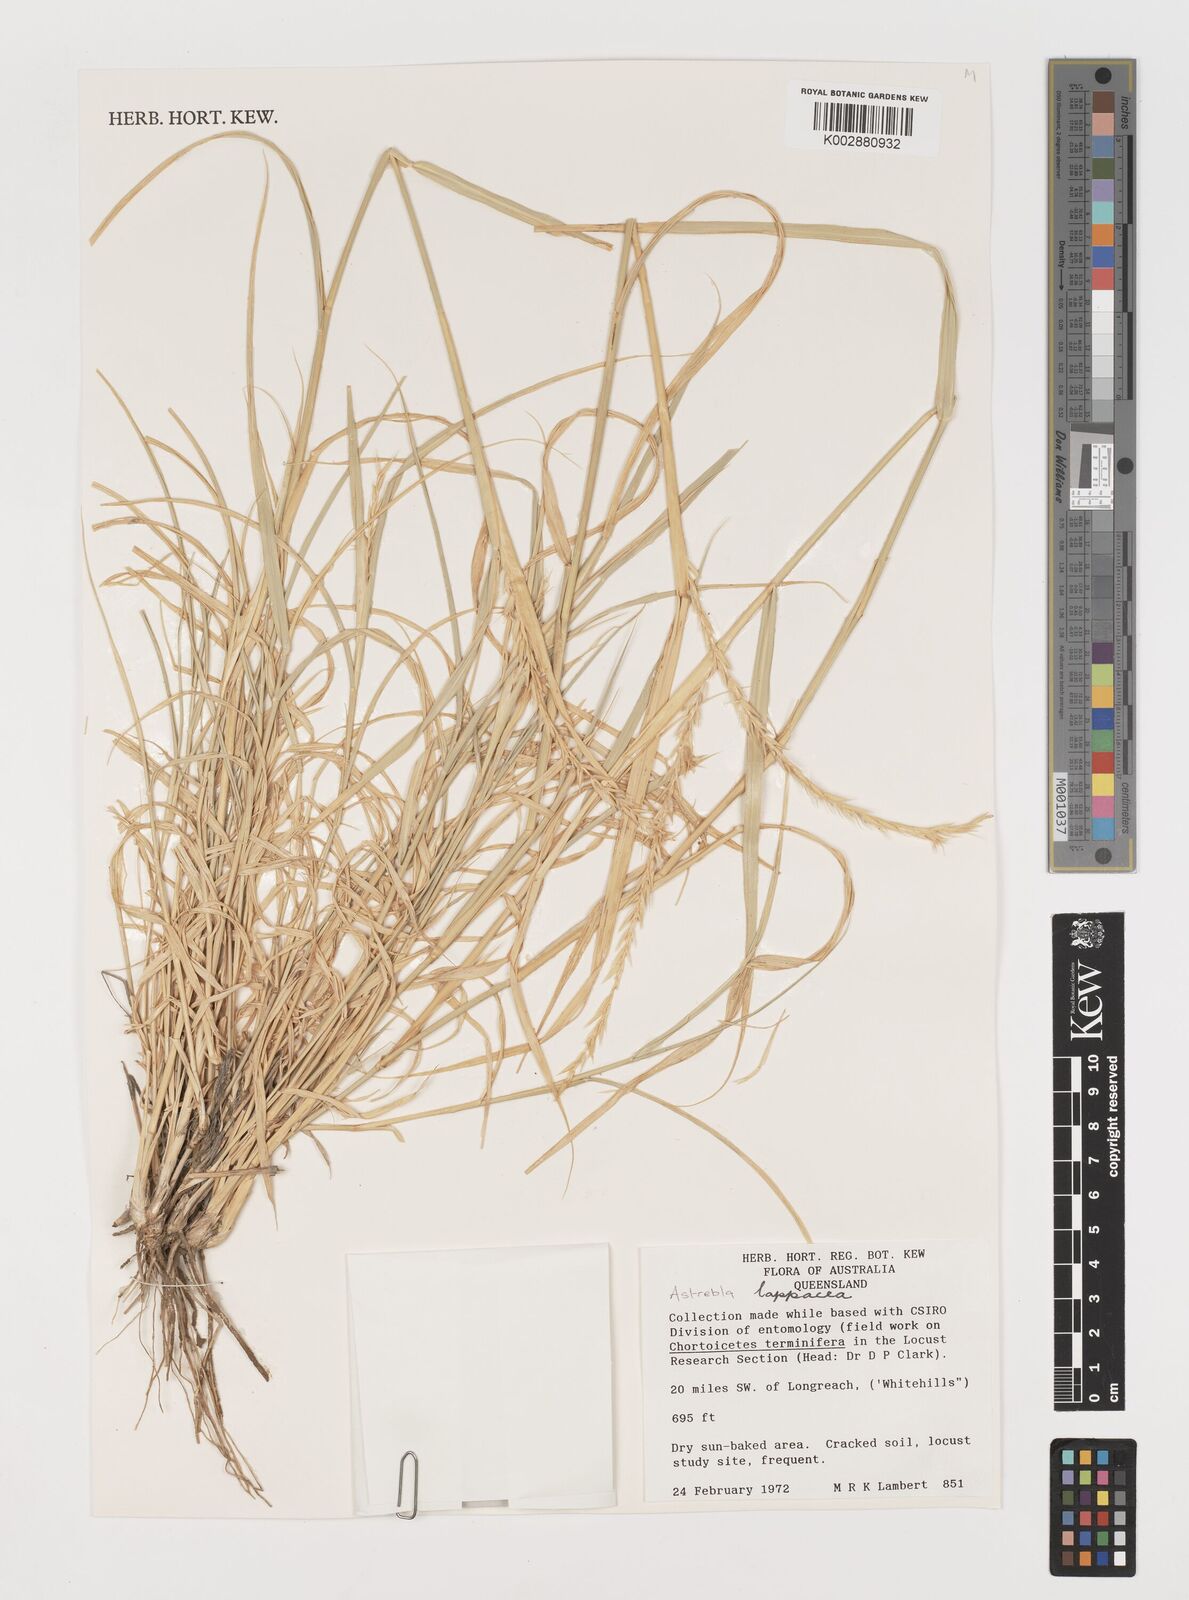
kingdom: Plantae
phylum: Tracheophyta
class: Liliopsida
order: Poales
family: Poaceae
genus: Astrebla
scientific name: Astrebla lappacea
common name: Curly mitchell grass
